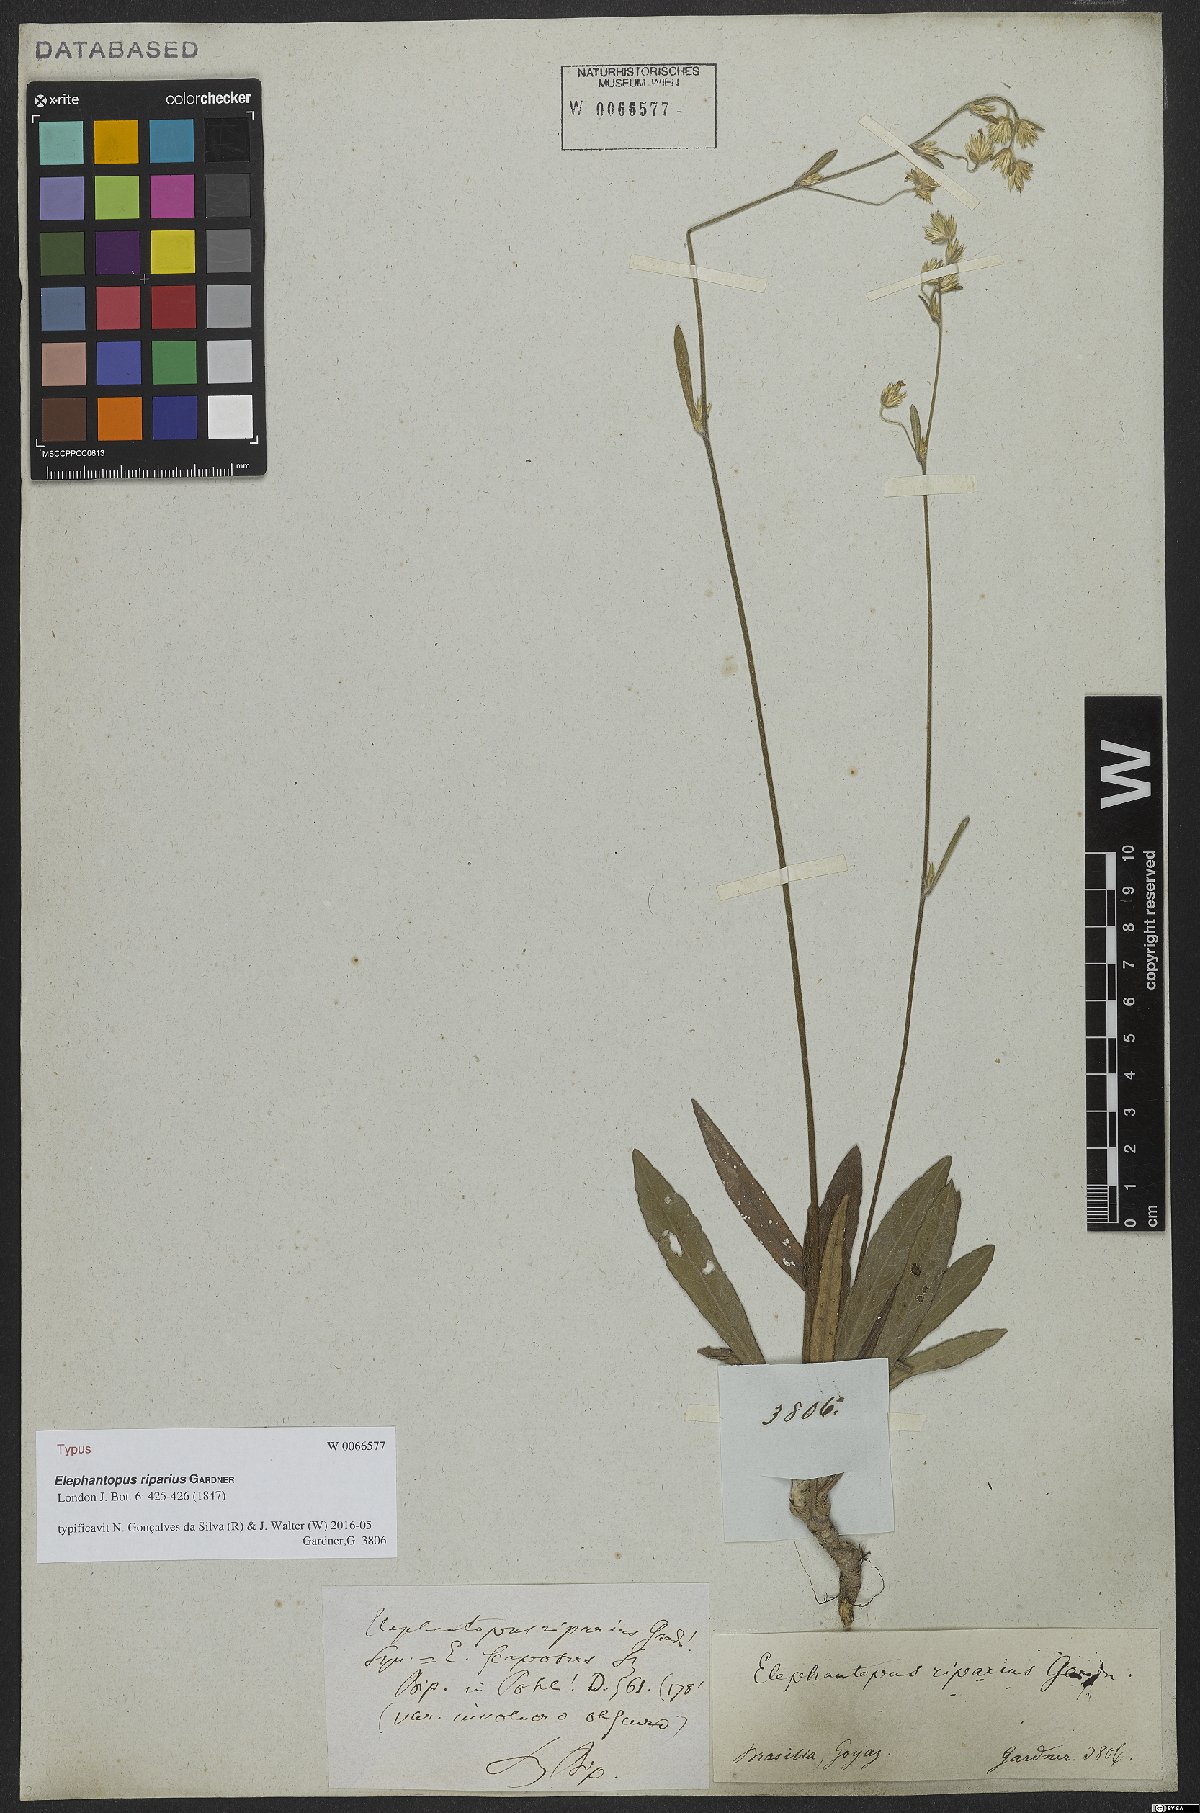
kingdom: Plantae
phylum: Tracheophyta
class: Magnoliopsida
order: Asterales
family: Asteraceae
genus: Elephantopus
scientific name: Elephantopus riparius
